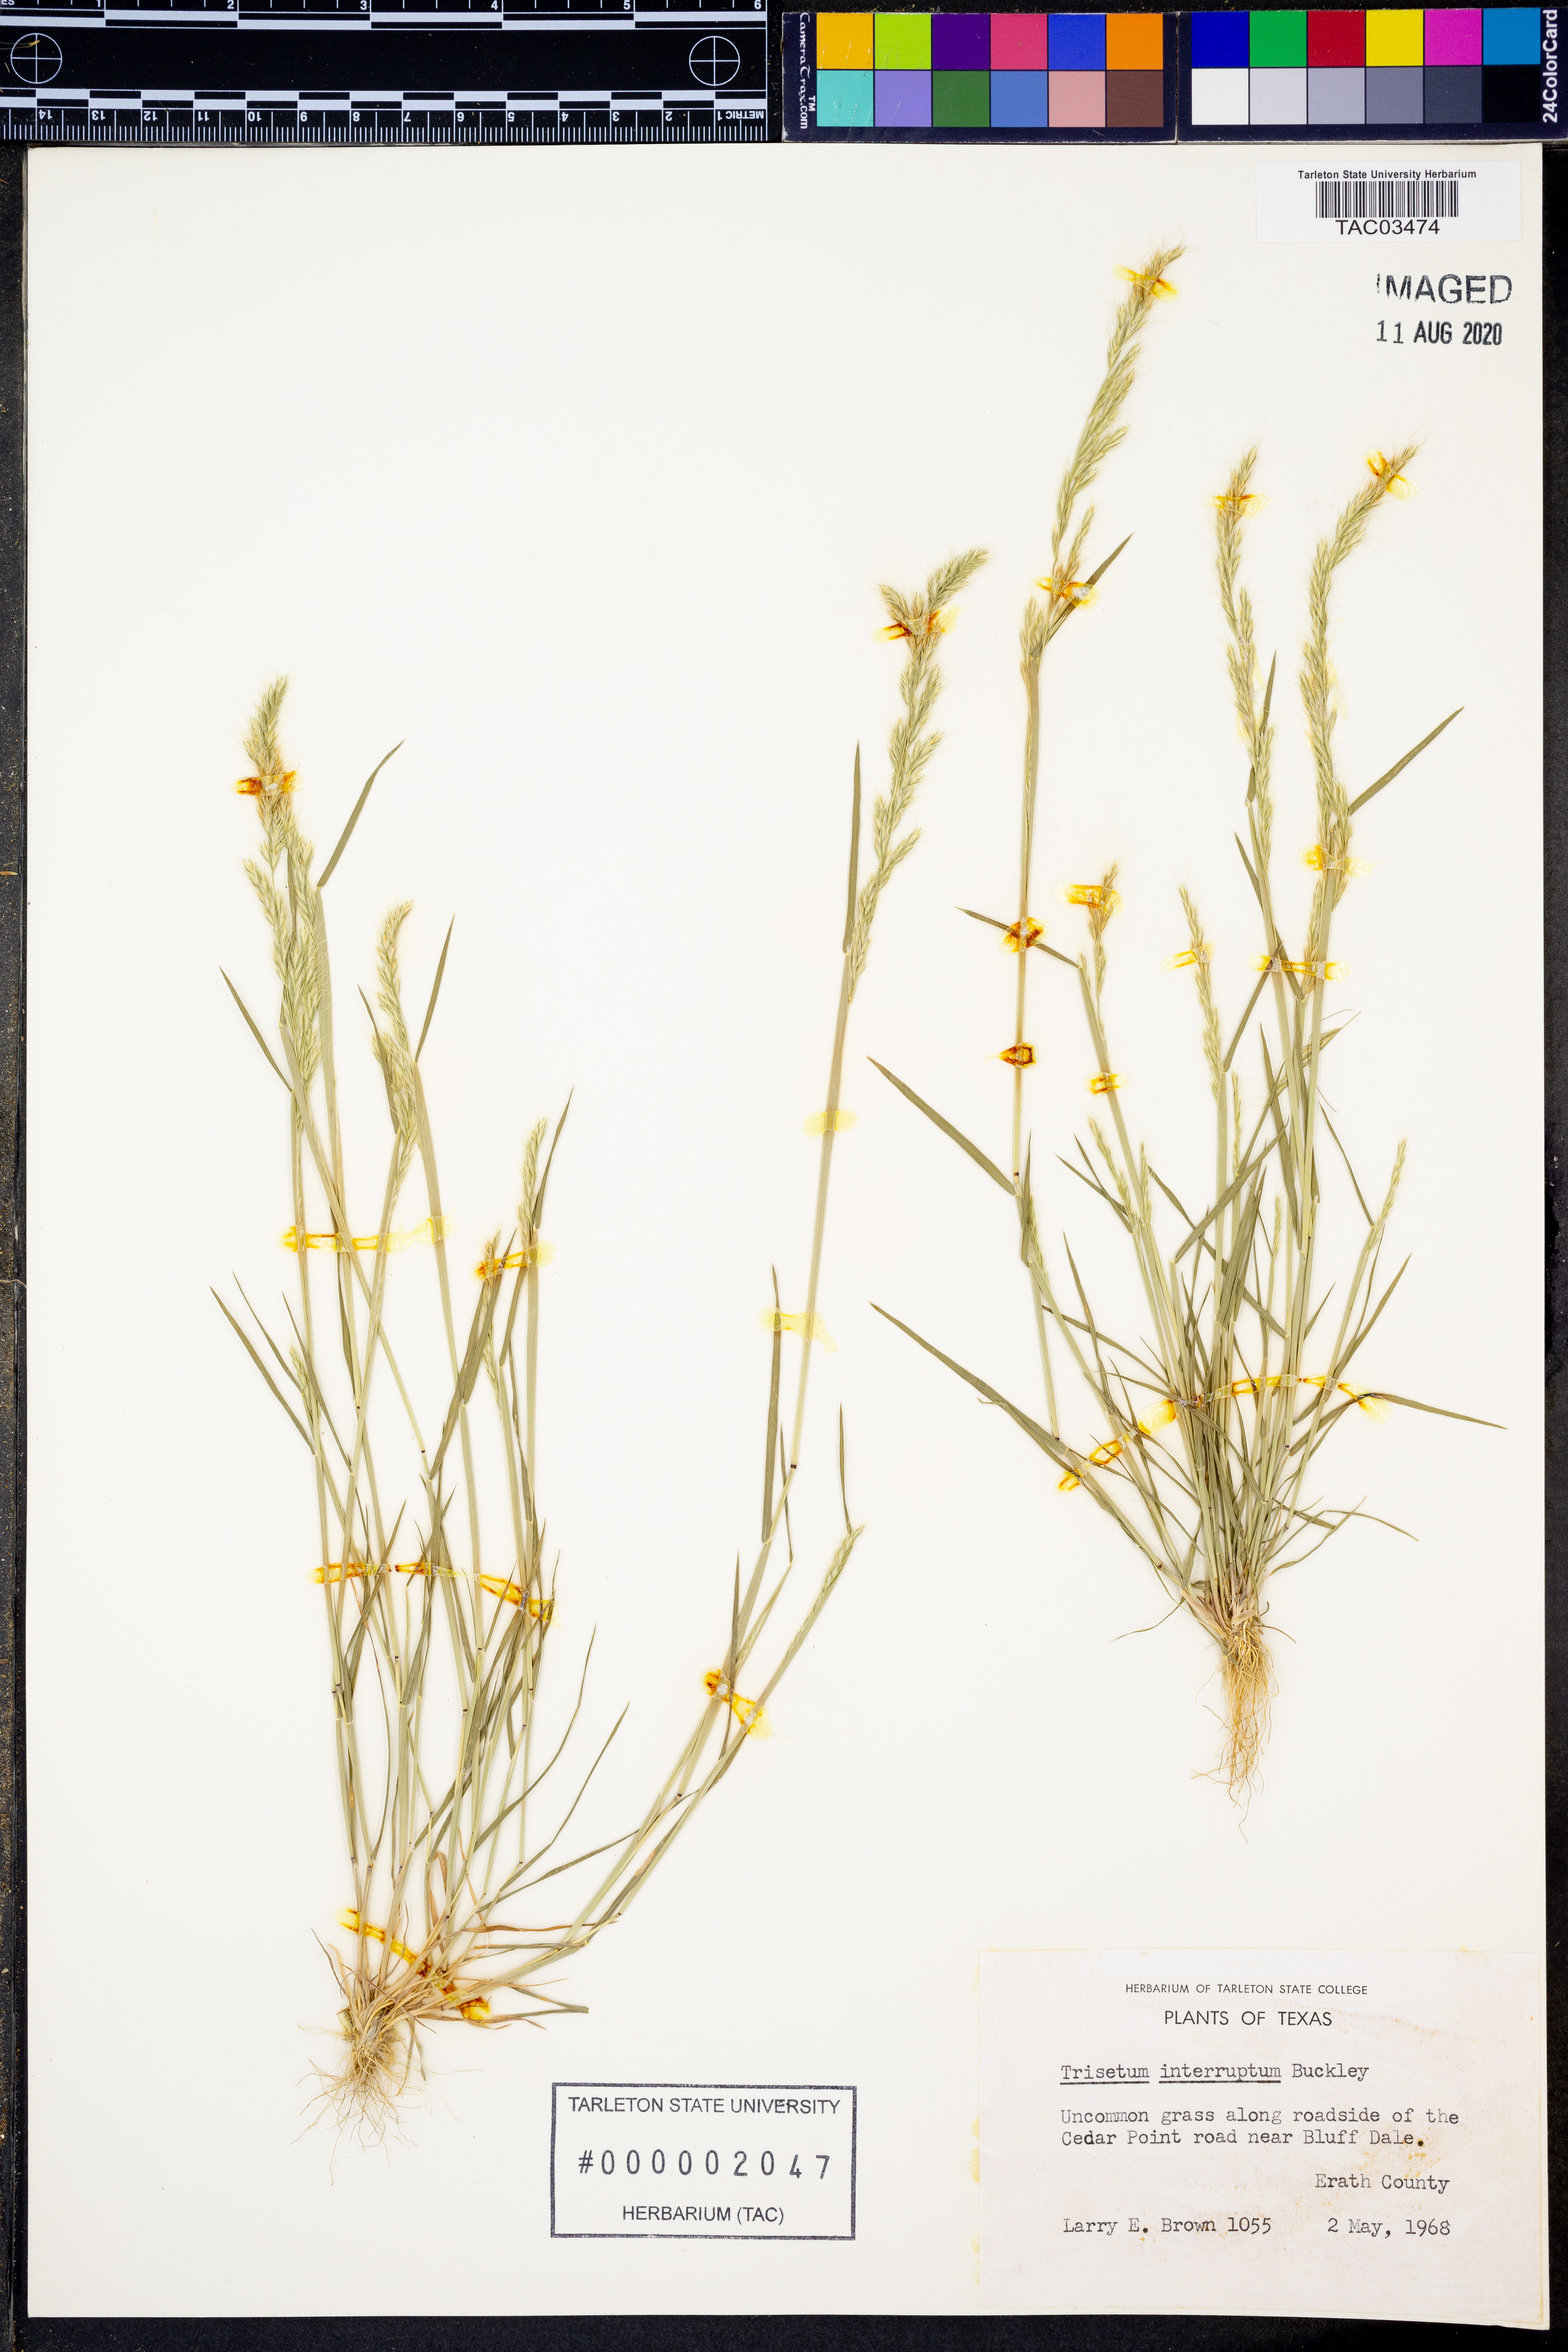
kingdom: Plantae
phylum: Tracheophyta
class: Liliopsida
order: Poales
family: Poaceae
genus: Sphenopholis
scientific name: Sphenopholis interrupta
